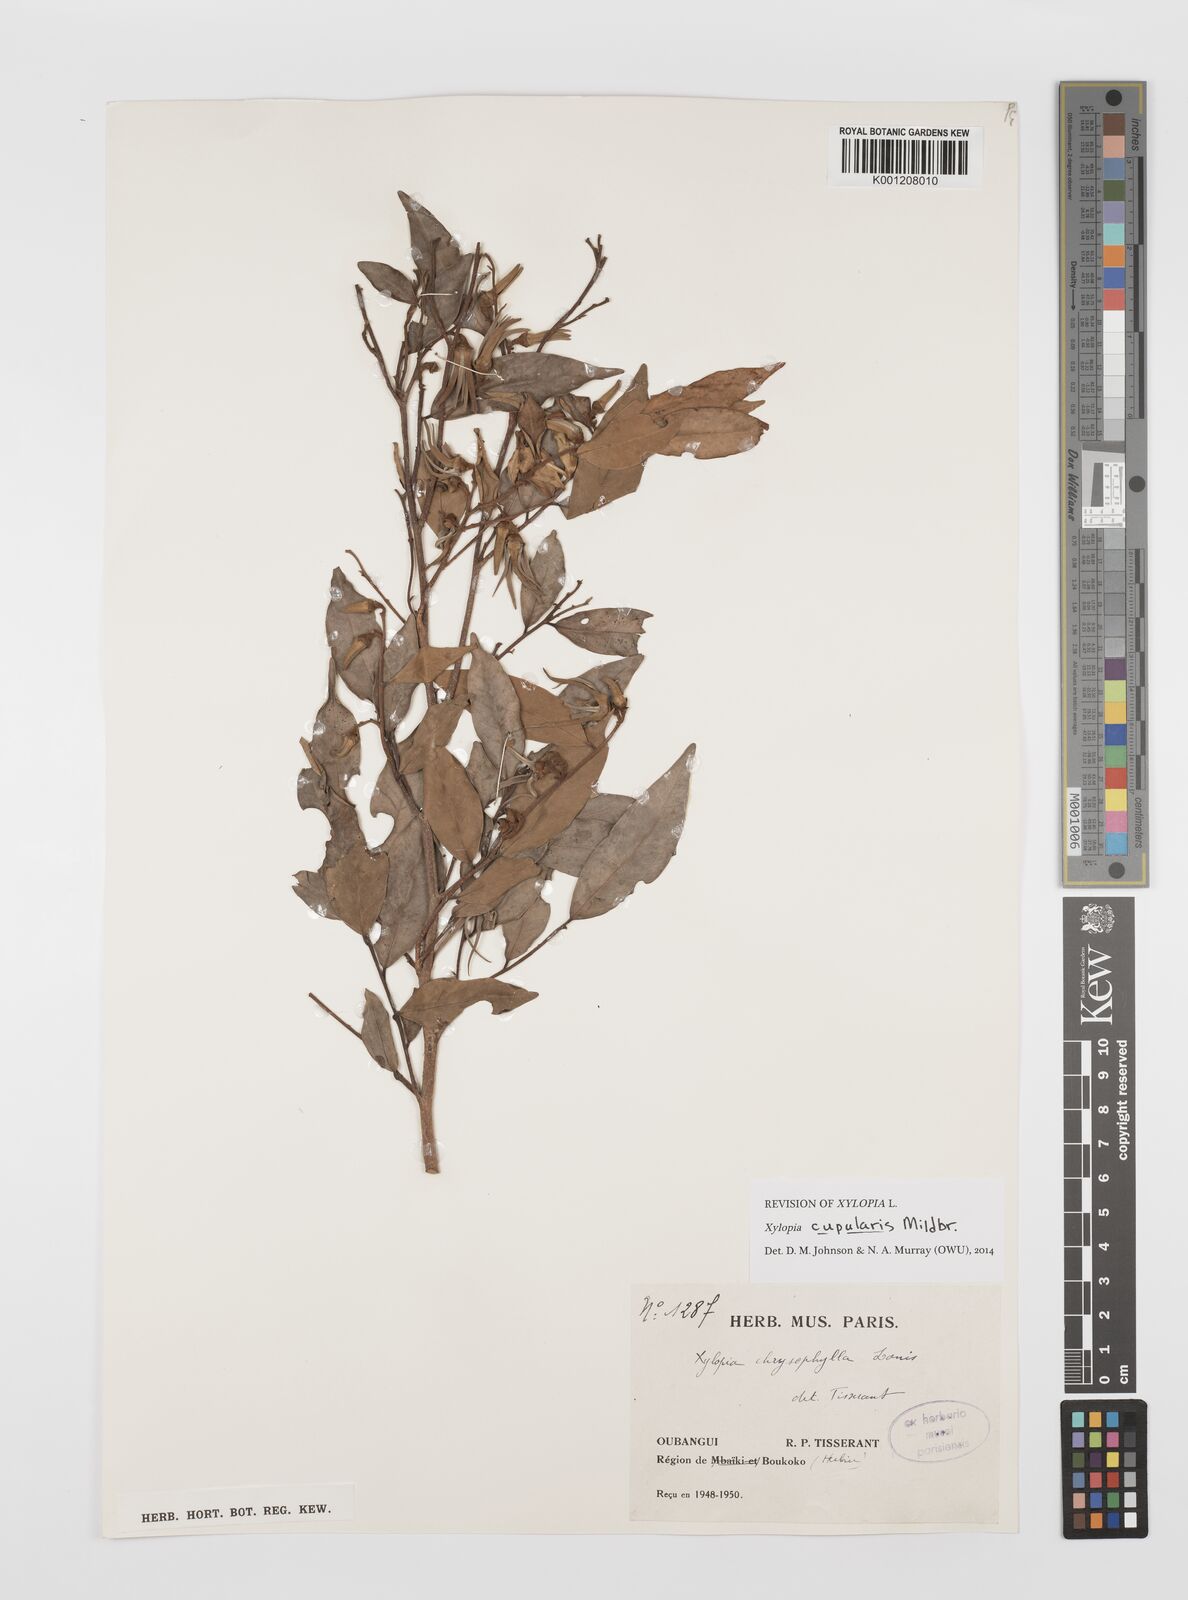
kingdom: Plantae
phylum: Tracheophyta
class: Magnoliopsida
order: Magnoliales
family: Annonaceae
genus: Xylopia
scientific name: Xylopia cupularis
